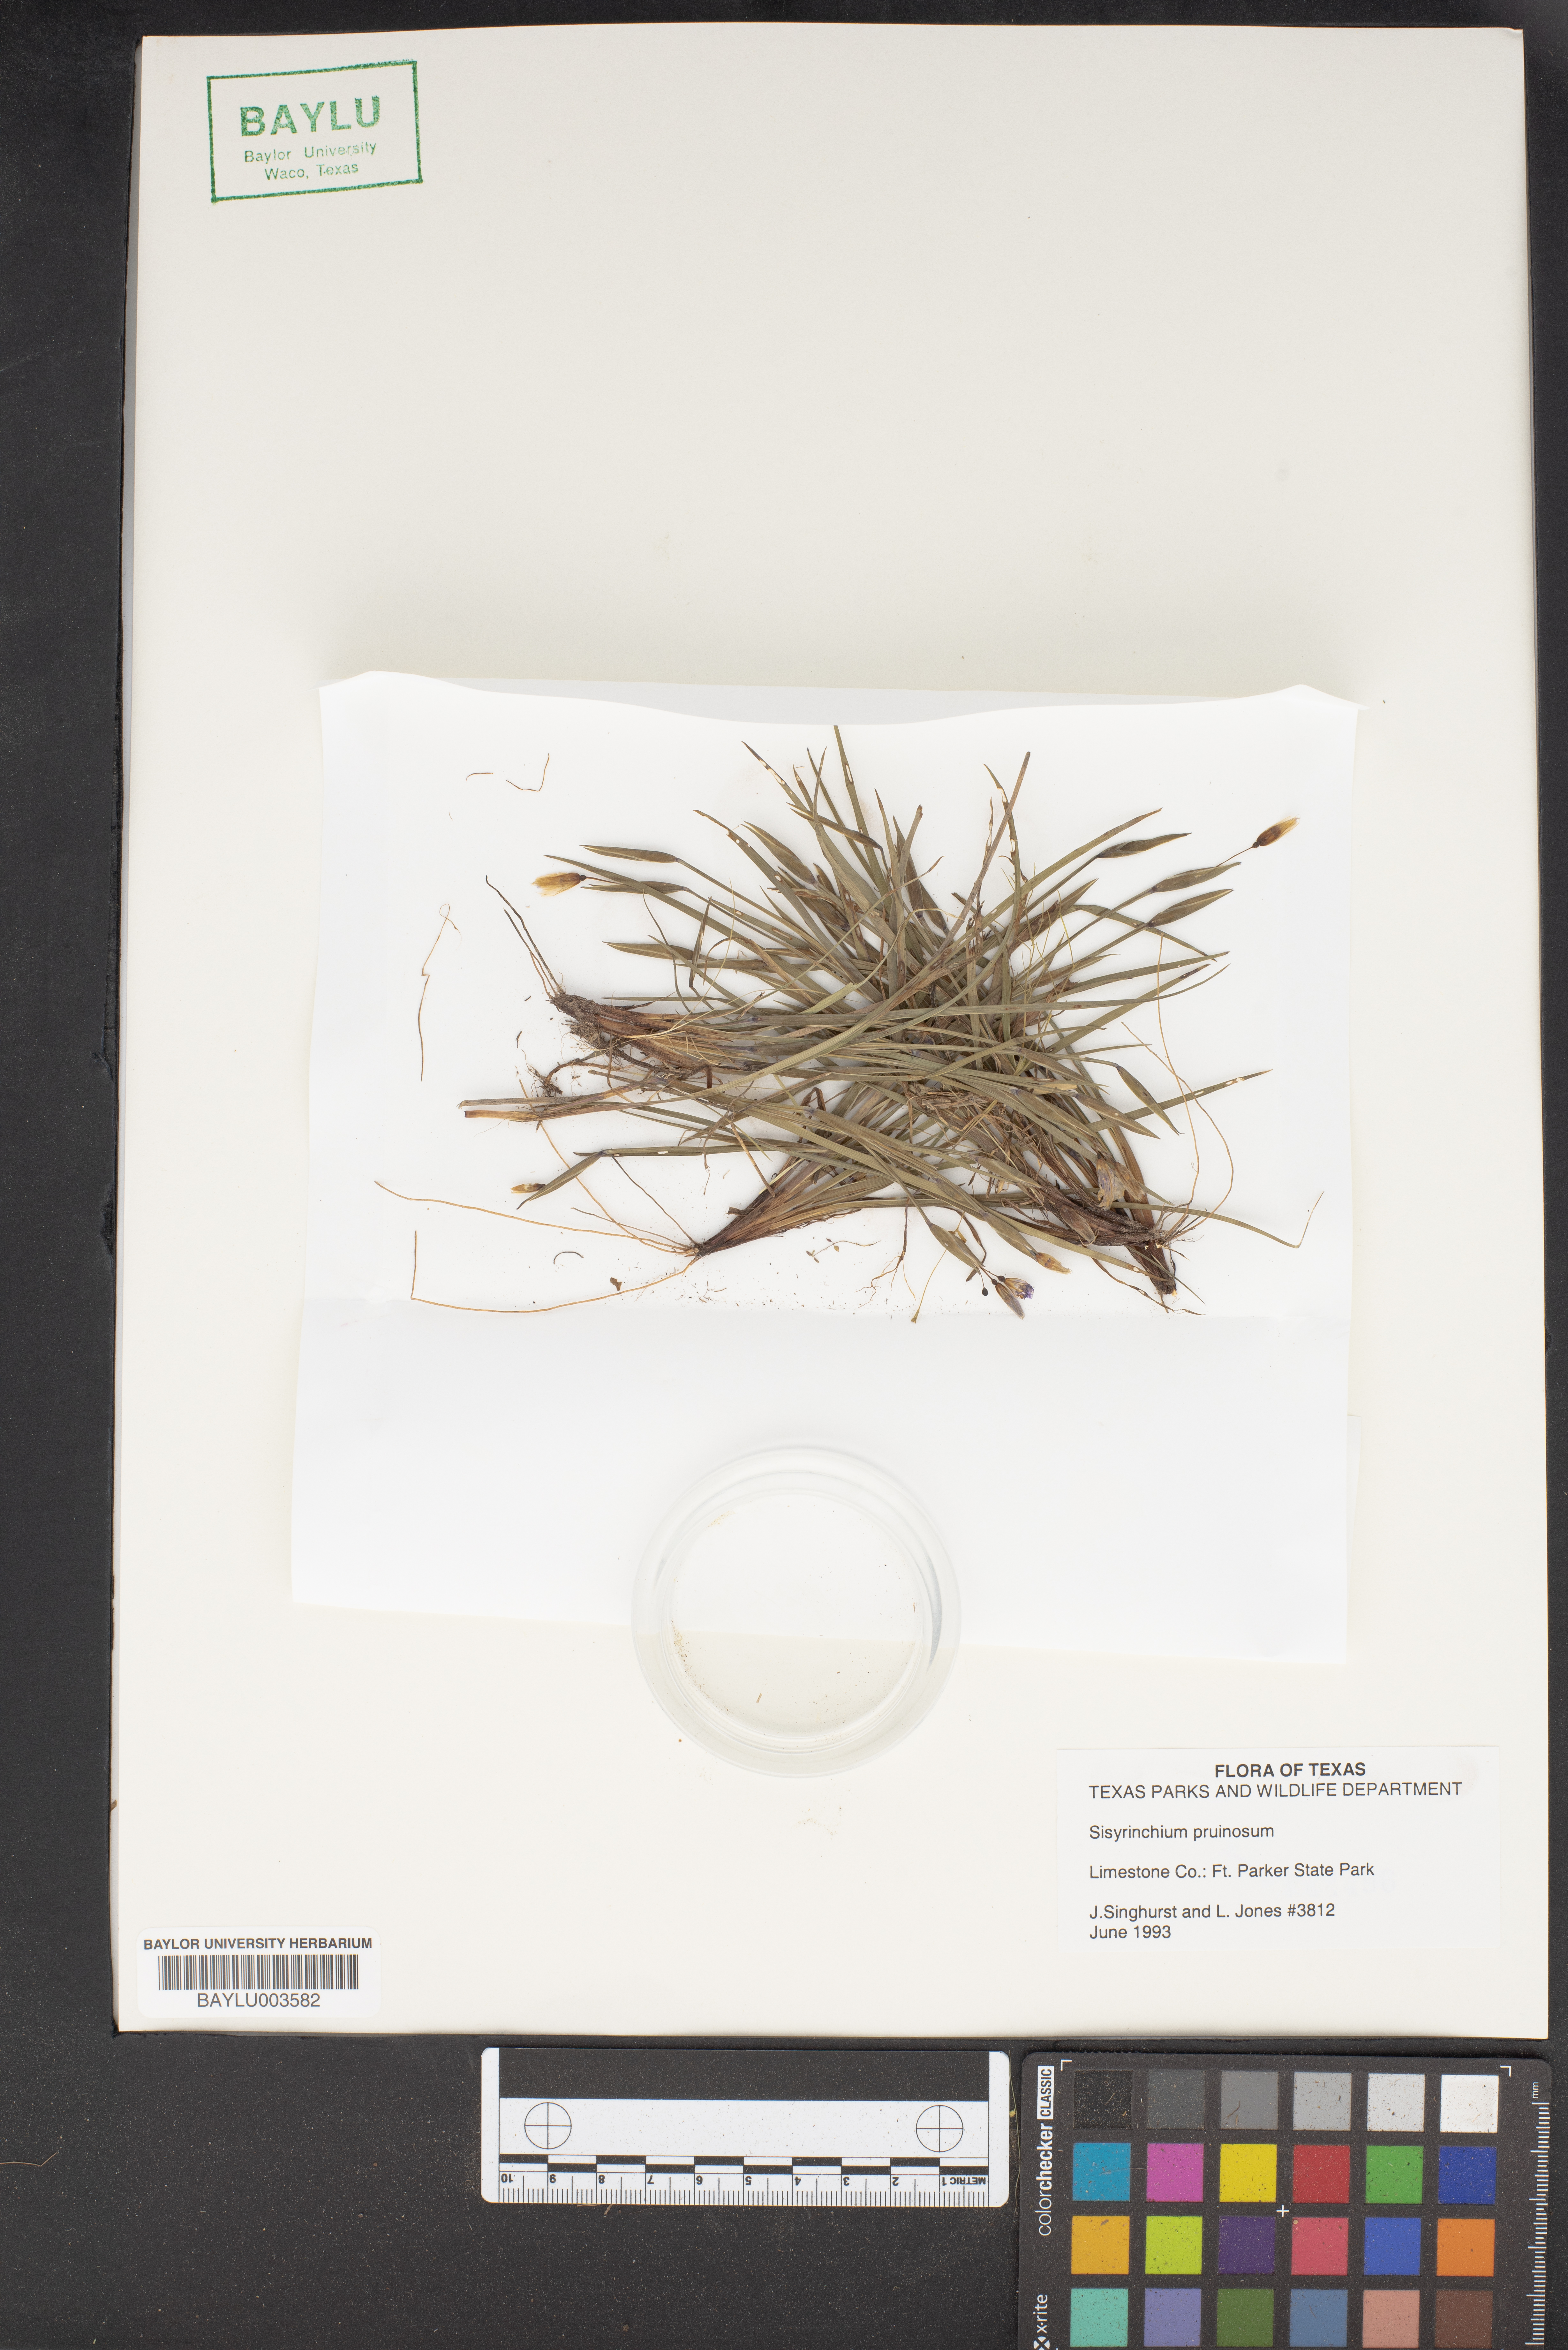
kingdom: Plantae
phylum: Tracheophyta
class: Liliopsida
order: Asparagales
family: Iridaceae
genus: Sisyrinchium
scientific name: Sisyrinchium pruinosum
